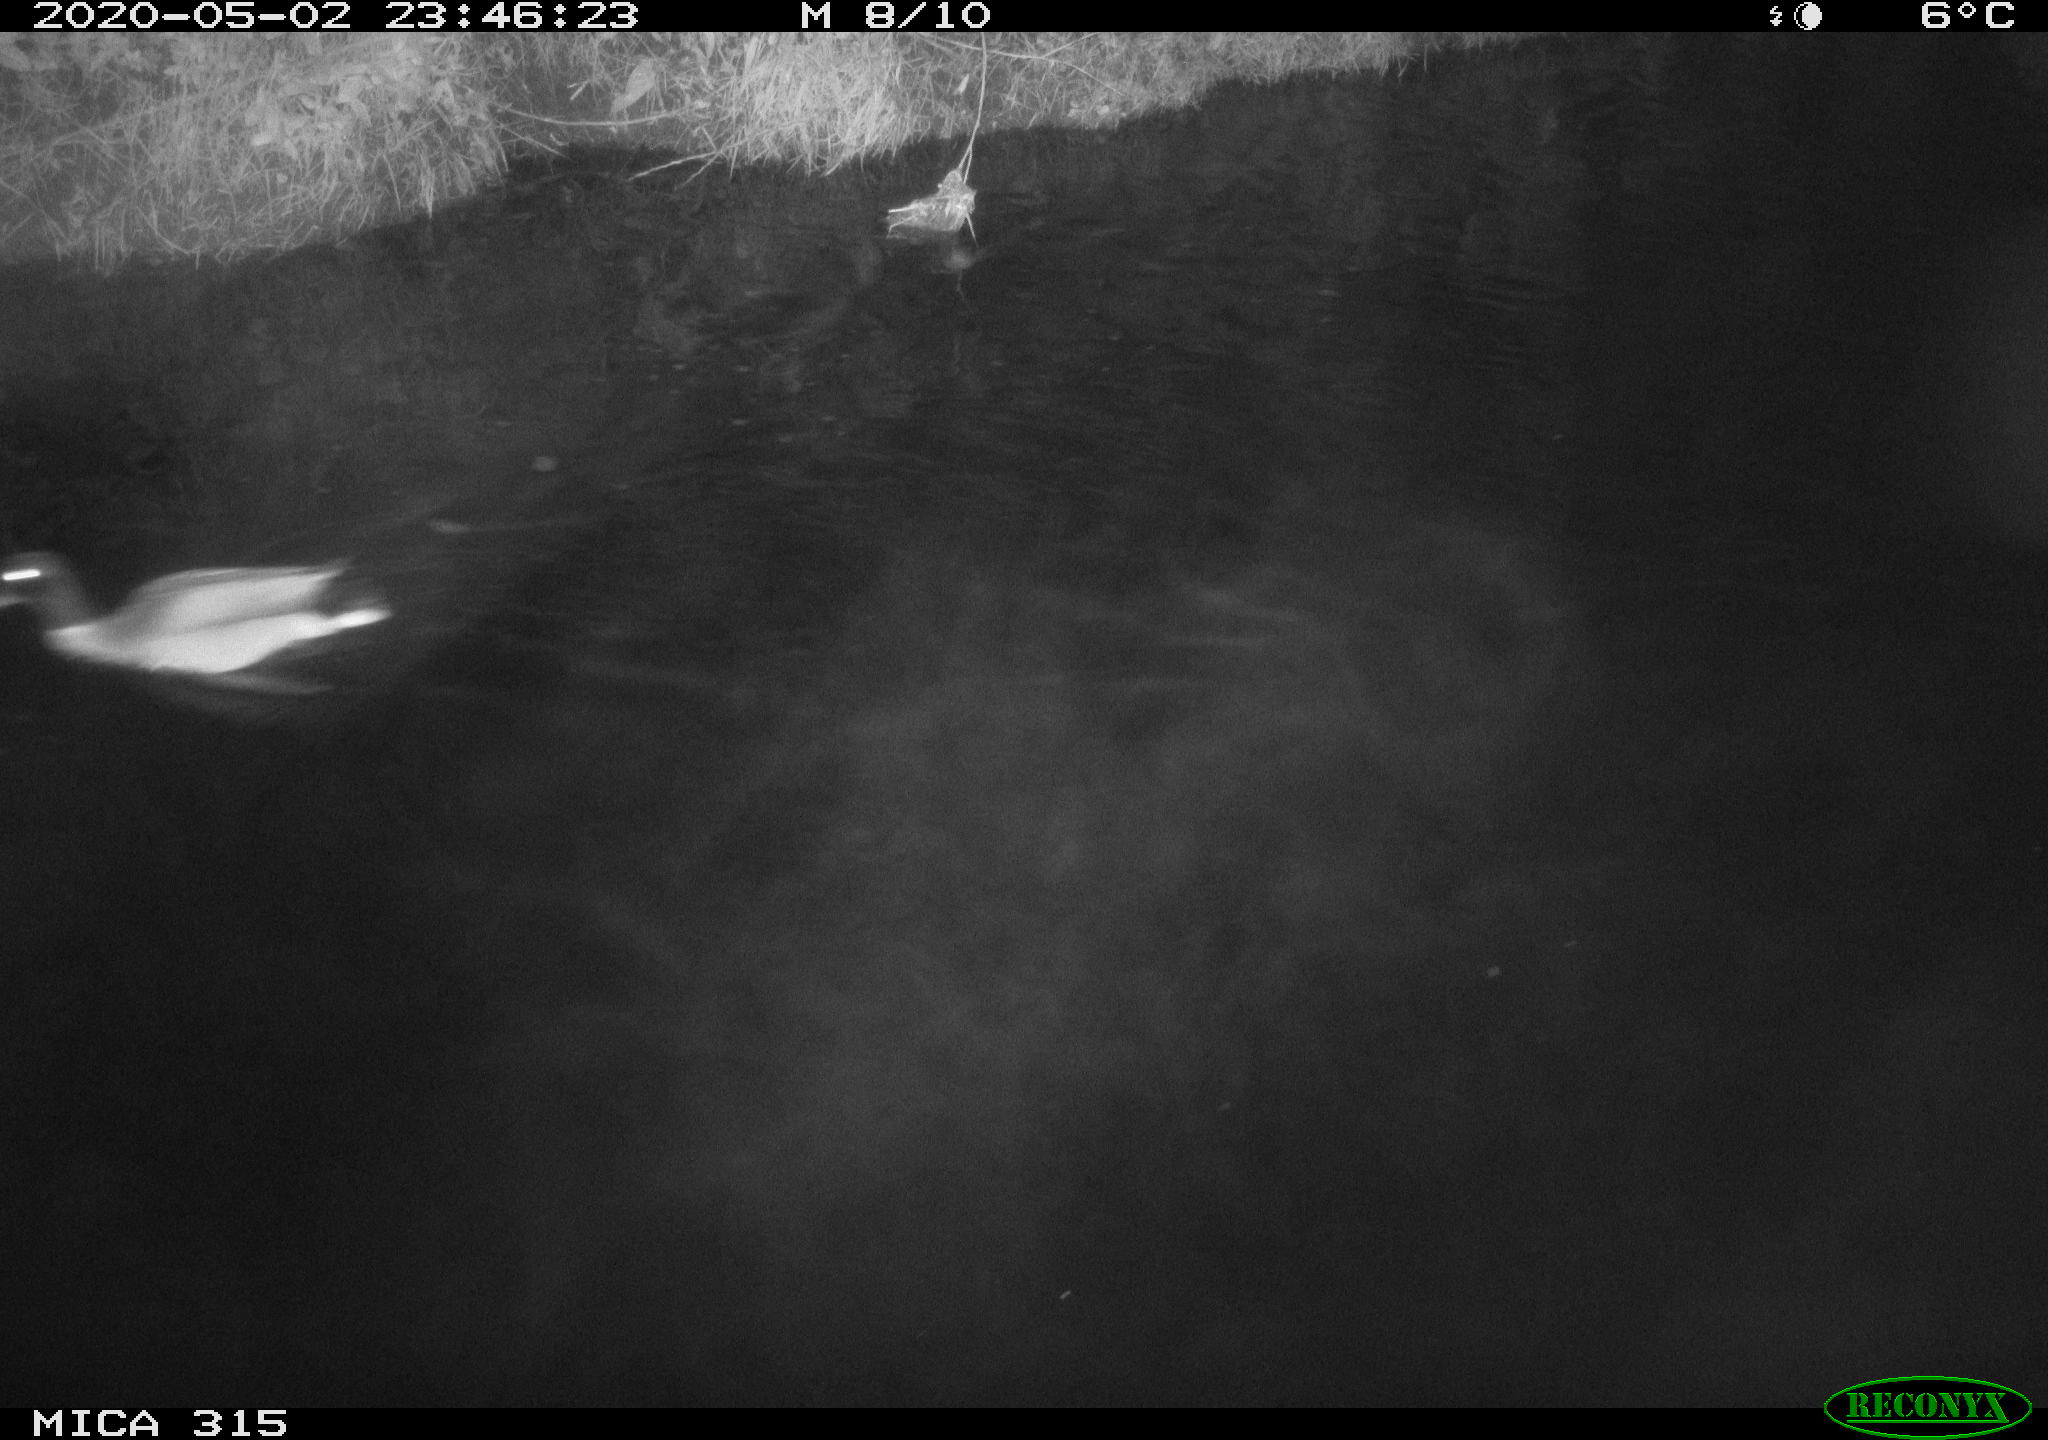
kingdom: Animalia
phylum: Chordata
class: Aves
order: Anseriformes
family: Anatidae
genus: Anas
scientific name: Anas platyrhynchos
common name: Mallard
